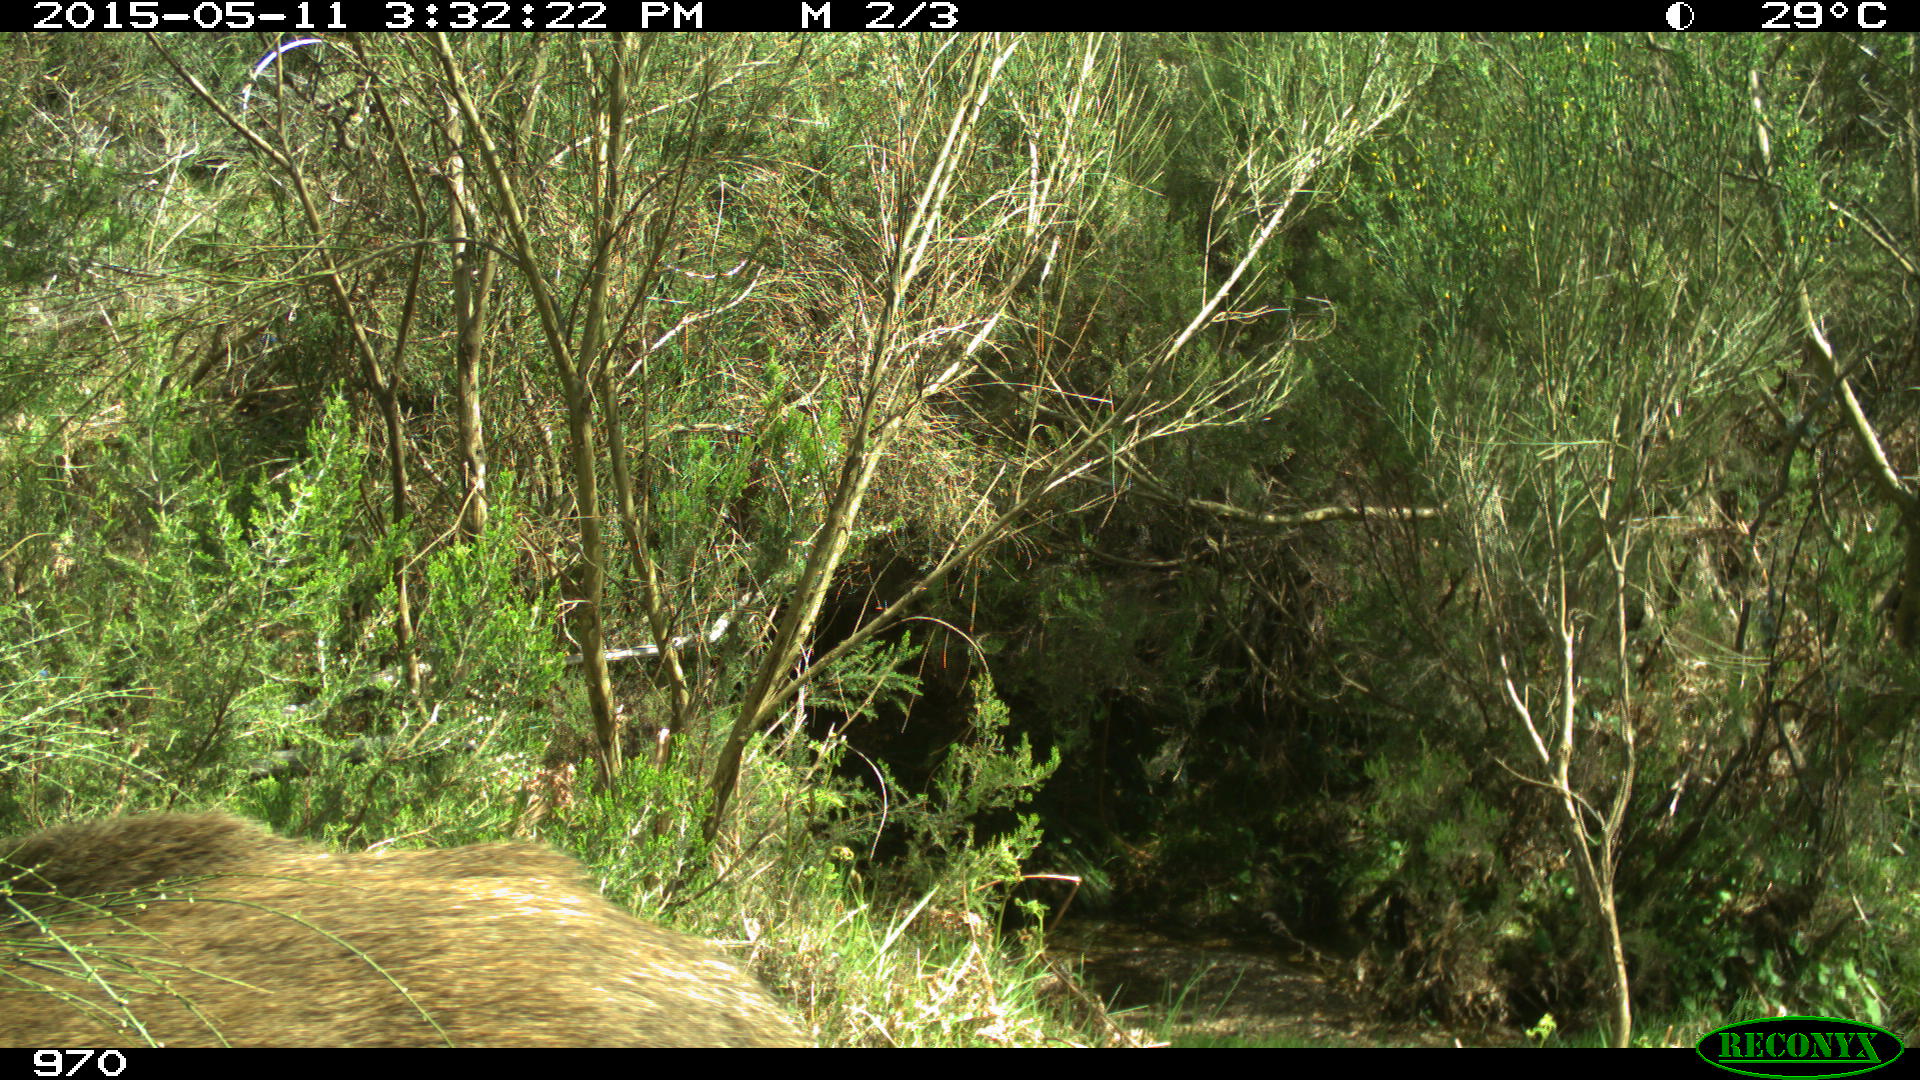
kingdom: Animalia
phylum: Chordata
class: Mammalia
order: Artiodactyla
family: Suidae
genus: Sus
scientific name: Sus scrofa
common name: Wild boar
